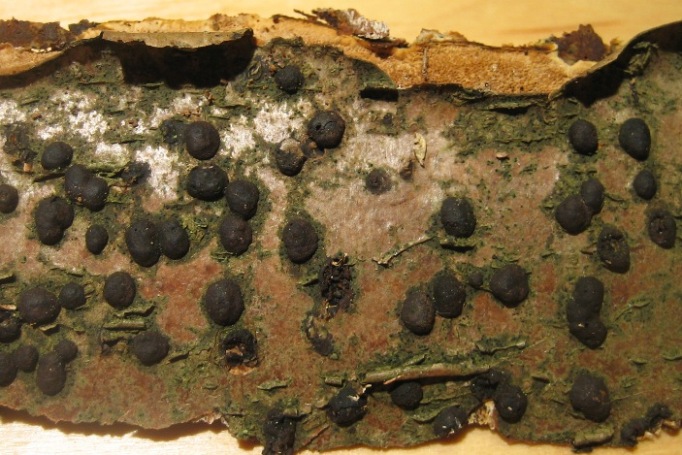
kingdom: Fungi
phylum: Ascomycota
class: Sordariomycetes
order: Xylariales
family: Hypoxylaceae
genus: Hypoxylon
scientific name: Hypoxylon fuscum
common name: kegleformet kulbær
